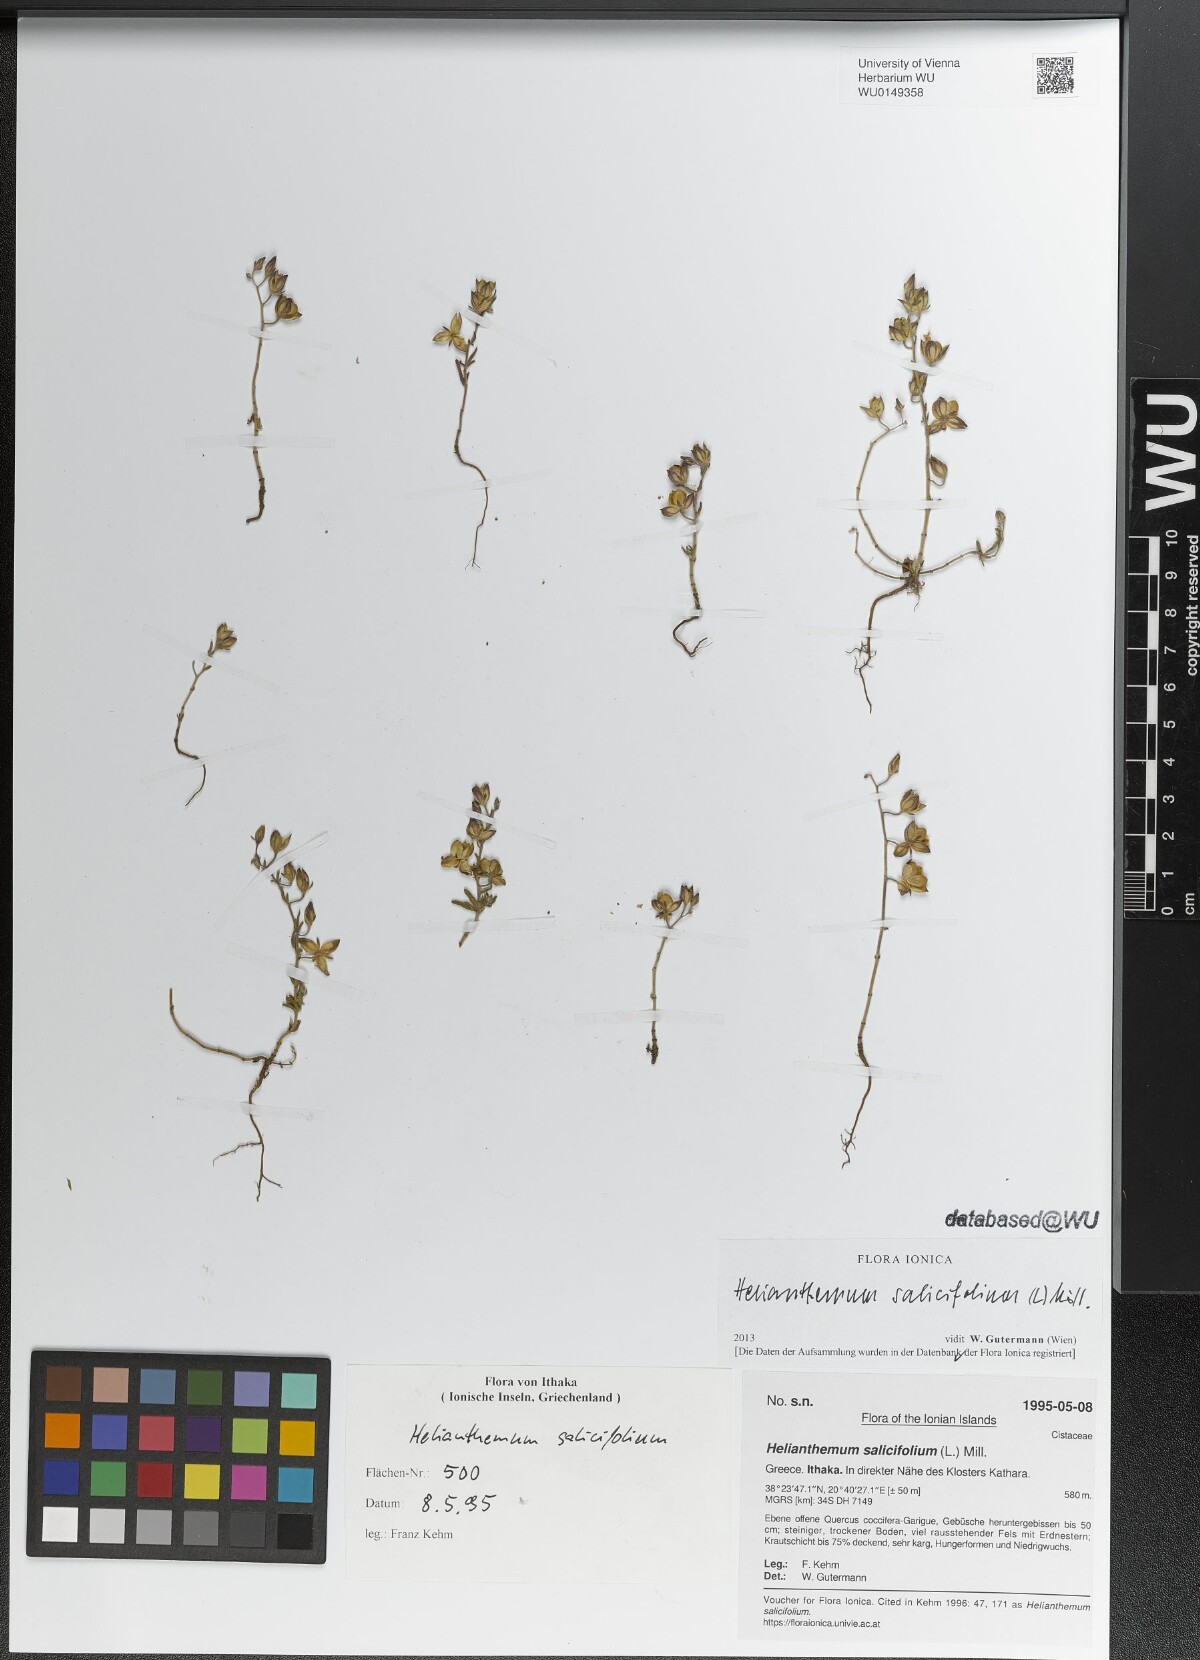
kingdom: Plantae
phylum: Tracheophyta
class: Magnoliopsida
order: Malvales
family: Cistaceae
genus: Helianthemum
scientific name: Helianthemum salicifolium
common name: Willowleaf frostweed
